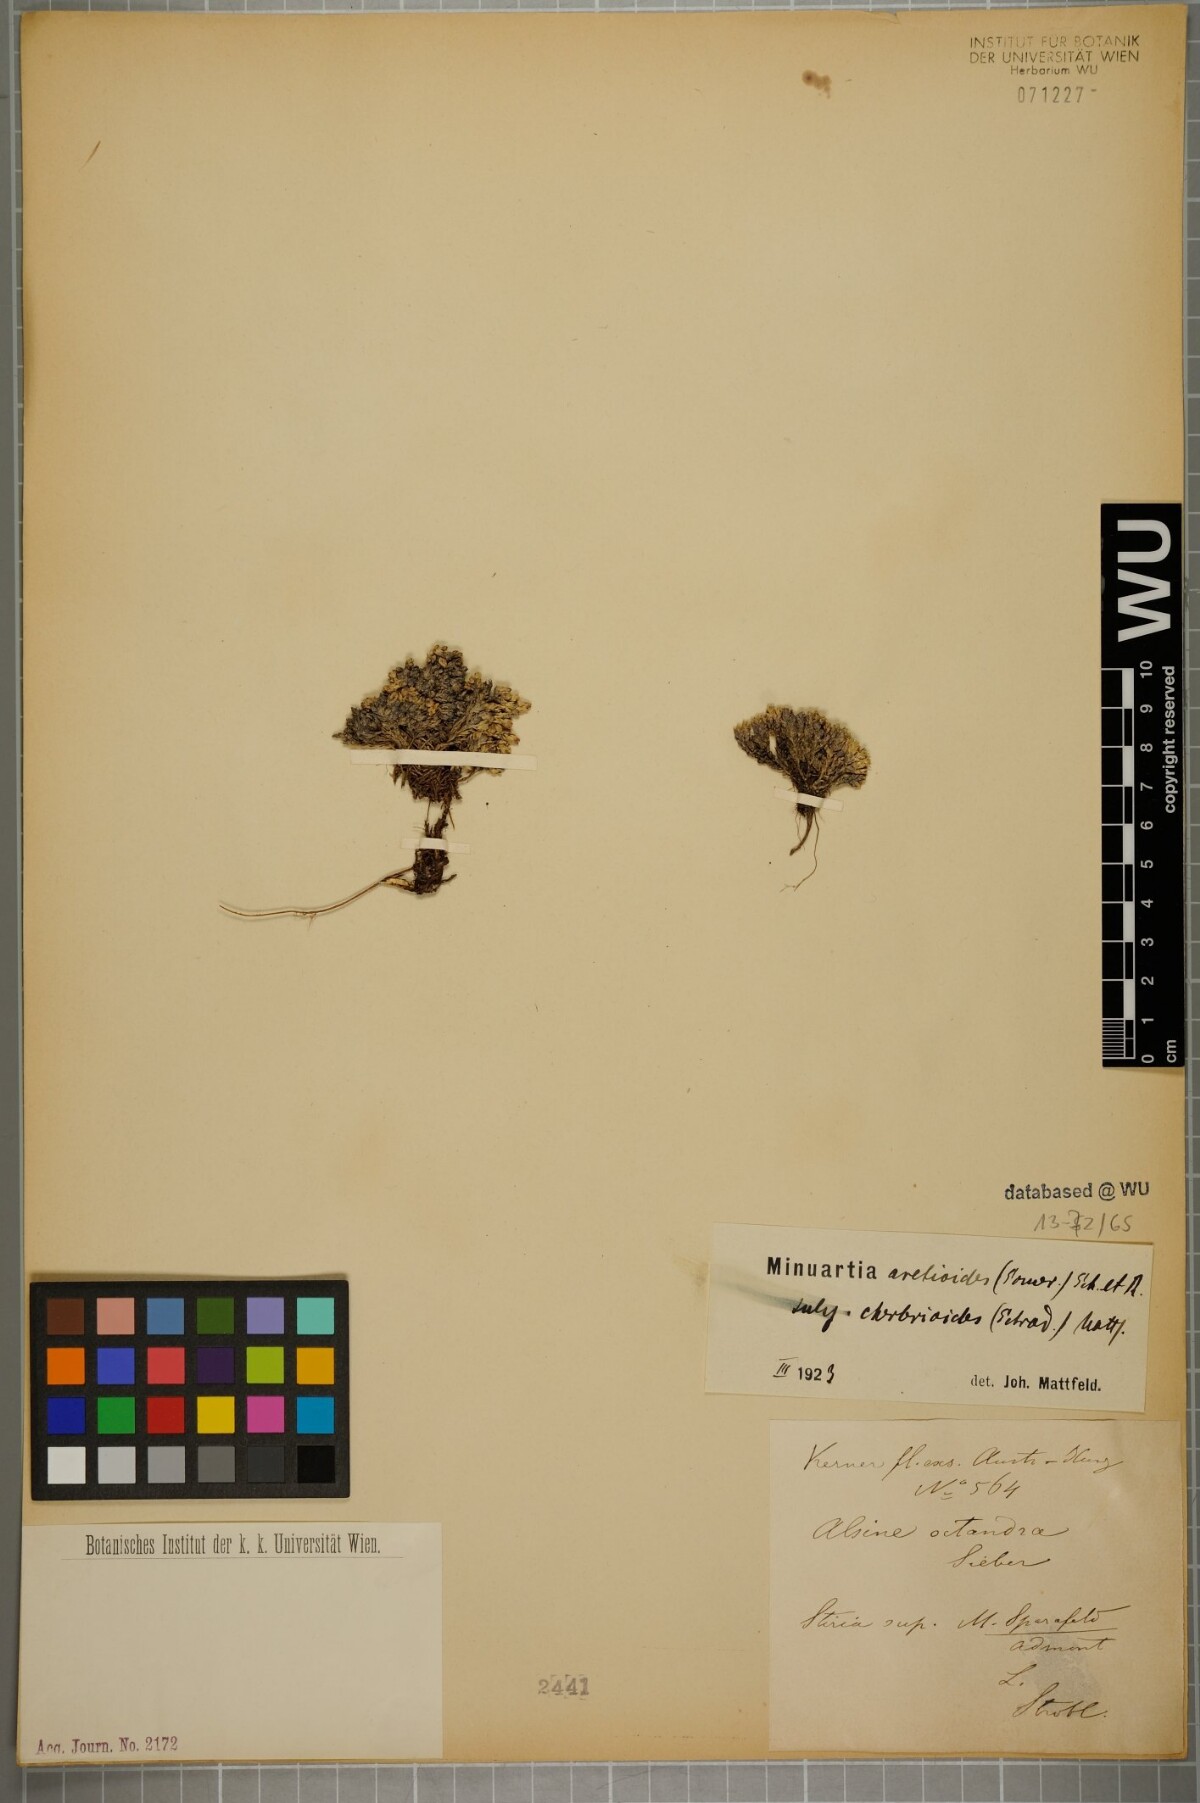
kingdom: Plantae
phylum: Tracheophyta
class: Magnoliopsida
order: Caryophyllales
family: Caryophyllaceae
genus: Facchinia
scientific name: Facchinia cherlerioides
